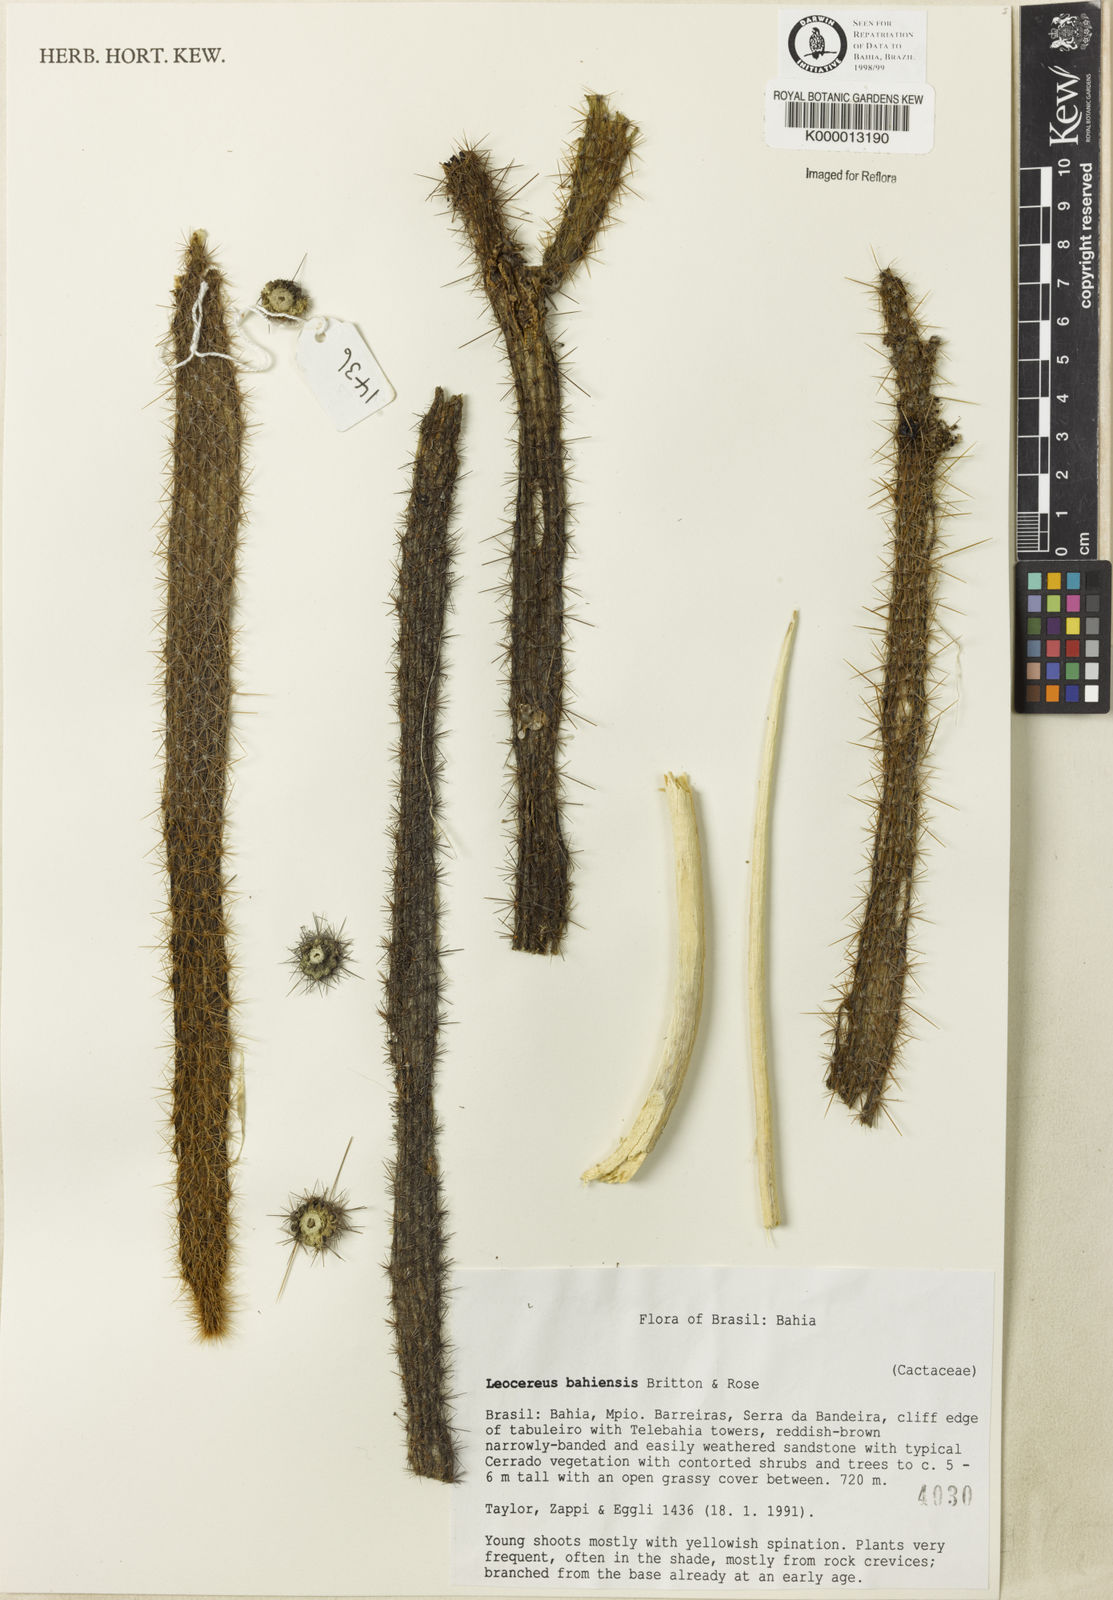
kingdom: Plantae
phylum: Tracheophyta
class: Magnoliopsida
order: Caryophyllales
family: Cactaceae
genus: Leocereus
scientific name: Leocereus bahiensis
